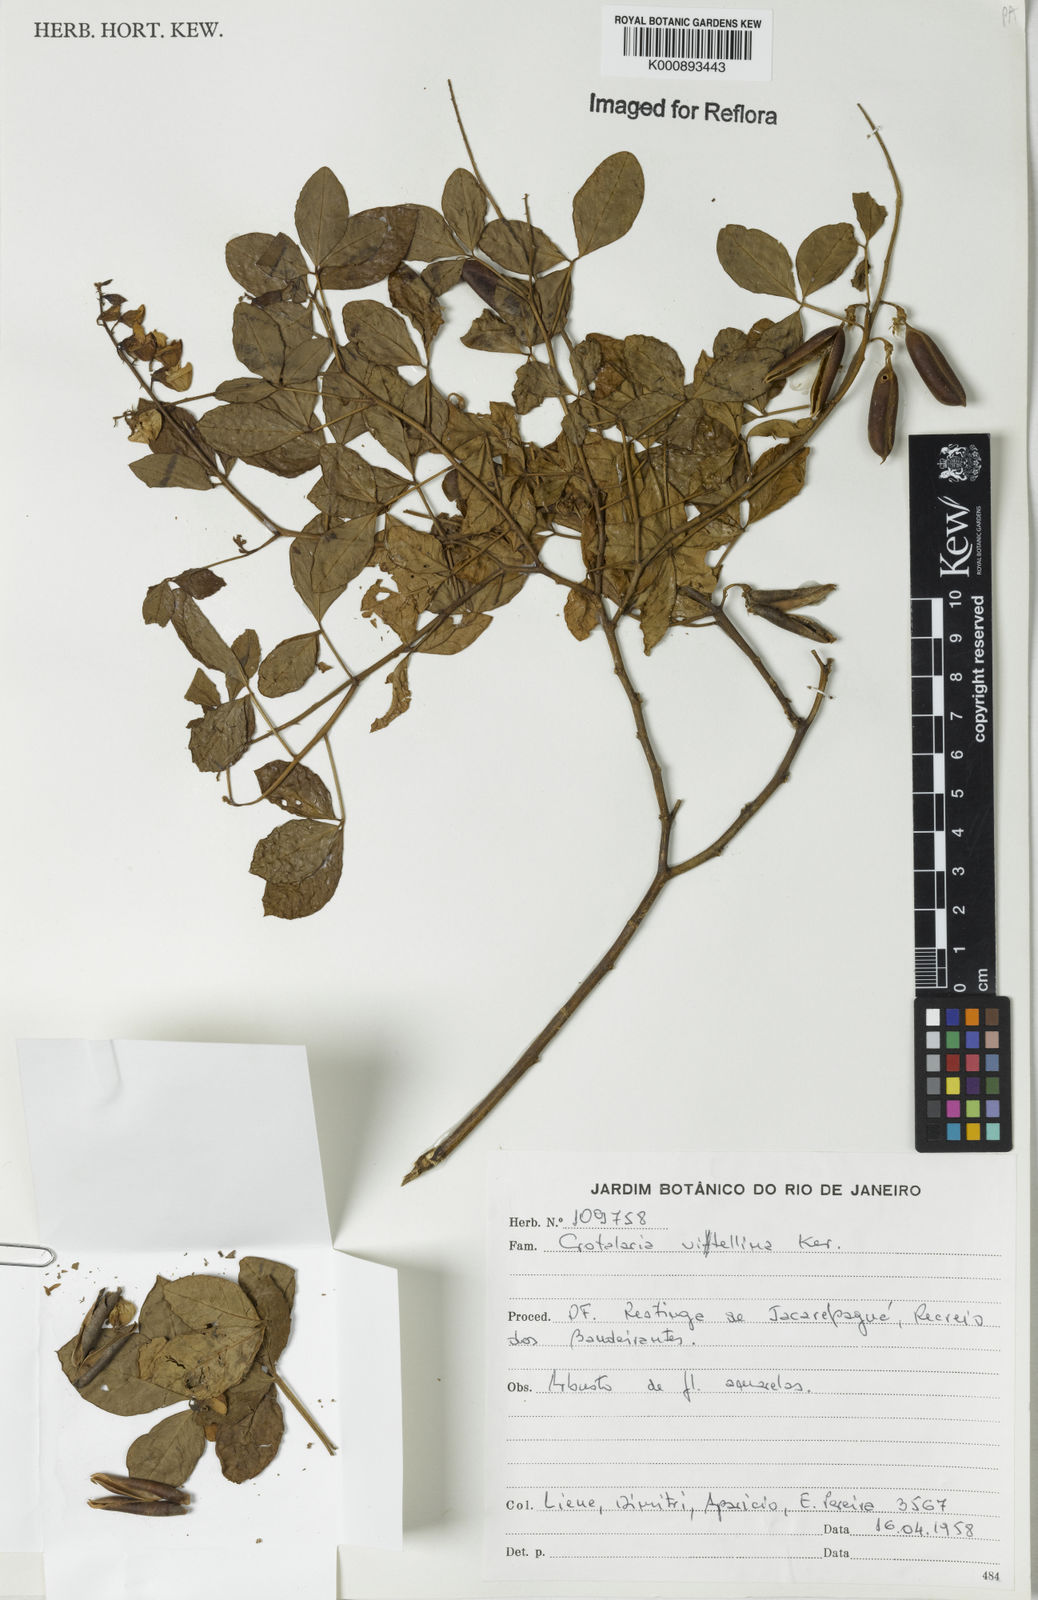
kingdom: Plantae
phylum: Tracheophyta
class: Magnoliopsida
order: Fabales
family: Fabaceae
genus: Crotalaria
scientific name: Crotalaria vitellina
